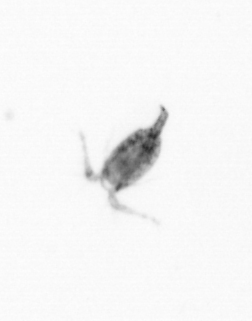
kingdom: Animalia
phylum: Arthropoda
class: Copepoda
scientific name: Copepoda
